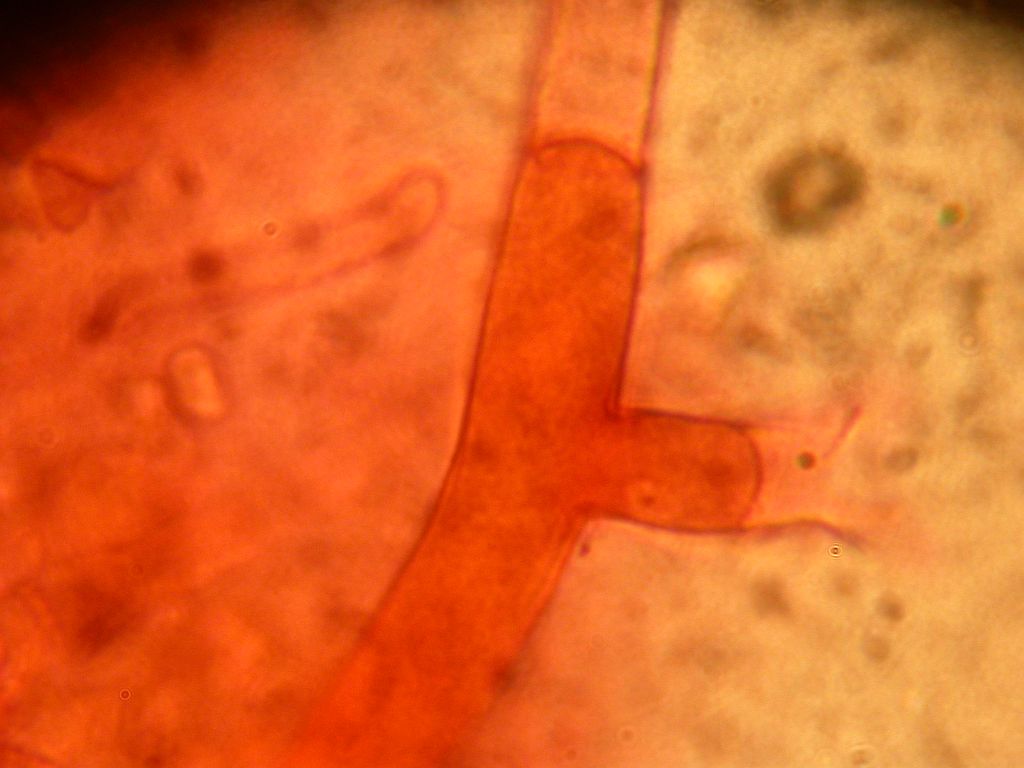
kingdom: Fungi
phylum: Basidiomycota
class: Agaricomycetes
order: Atheliales
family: Atheliaceae
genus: Amphinema
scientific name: Amphinema byssoides
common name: almindelig rodhinde
